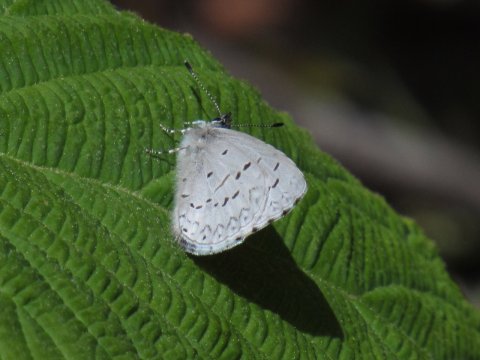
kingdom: Animalia
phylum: Arthropoda
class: Insecta
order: Lepidoptera
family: Lycaenidae
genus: Celastrina
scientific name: Celastrina lucia
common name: Northern Spring Azure
